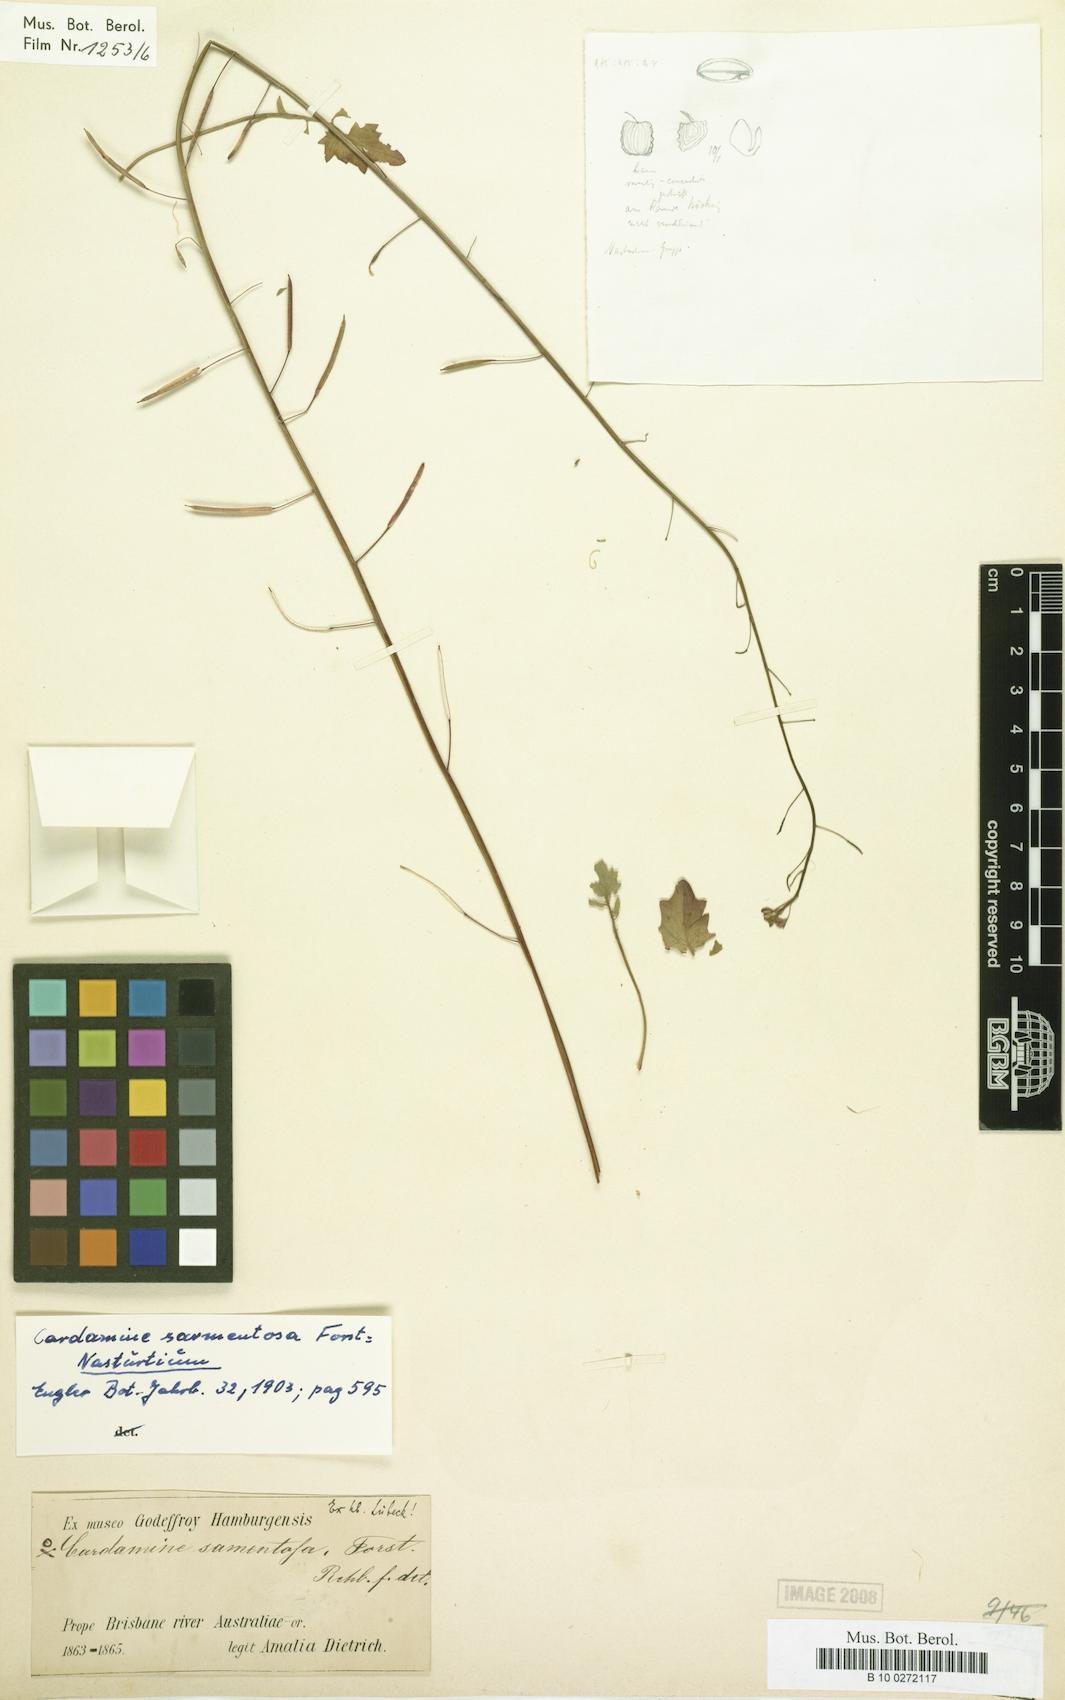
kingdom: Plantae
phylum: Tracheophyta
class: Magnoliopsida
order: Brassicales
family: Brassicaceae
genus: Rorippa
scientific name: Rorippa sarmentosa
